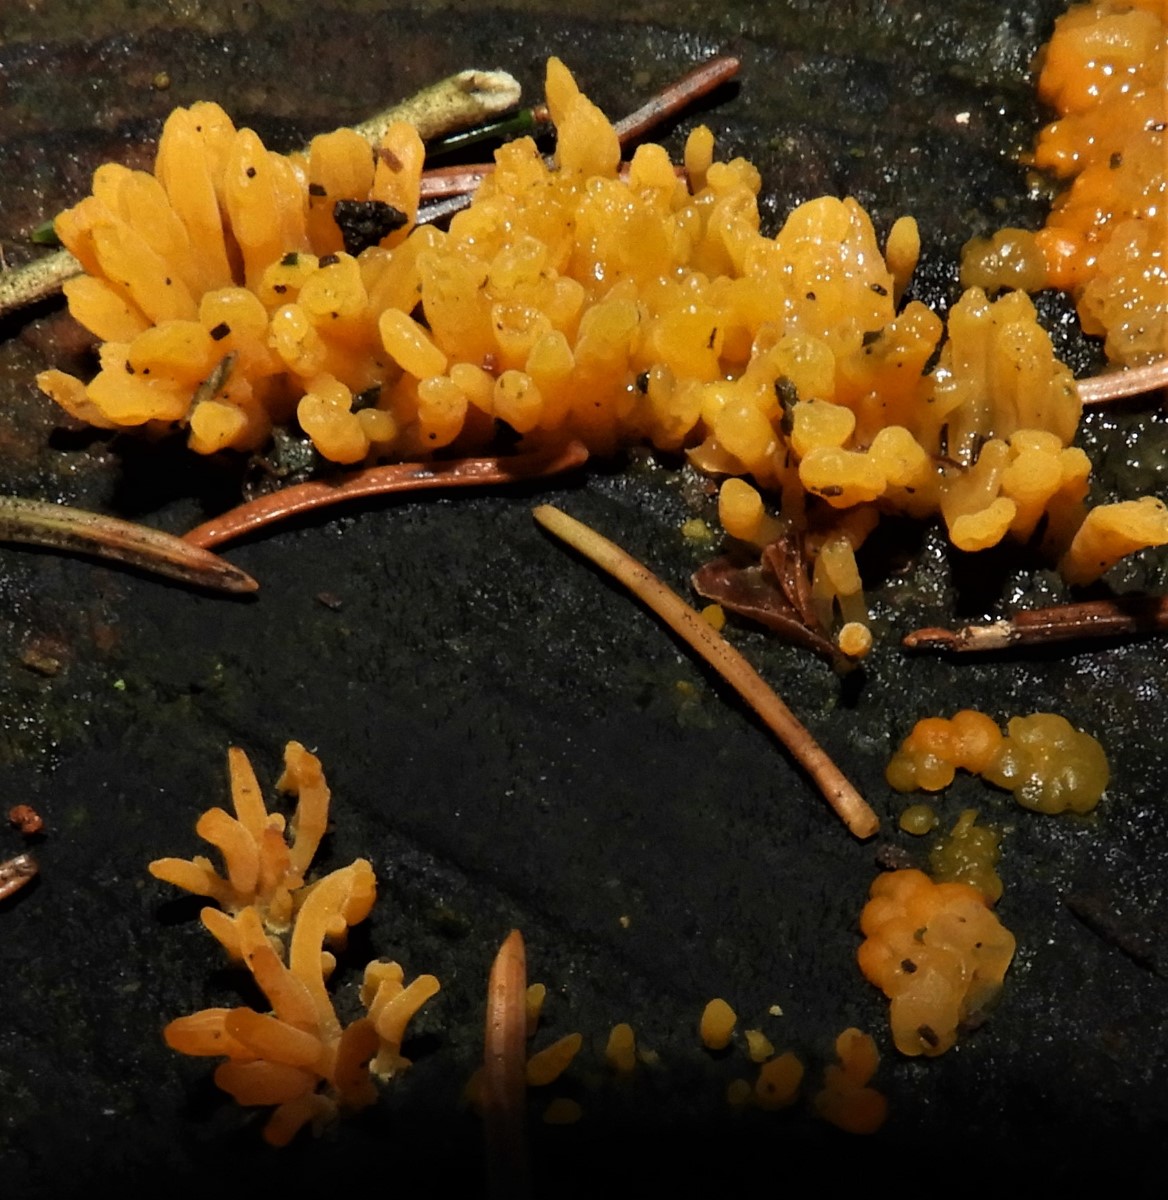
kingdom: Fungi
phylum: Basidiomycota
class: Dacrymycetes
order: Dacrymycetales
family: Dacrymycetaceae
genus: Calocera
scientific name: Calocera cornea
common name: liden guldgaffel
